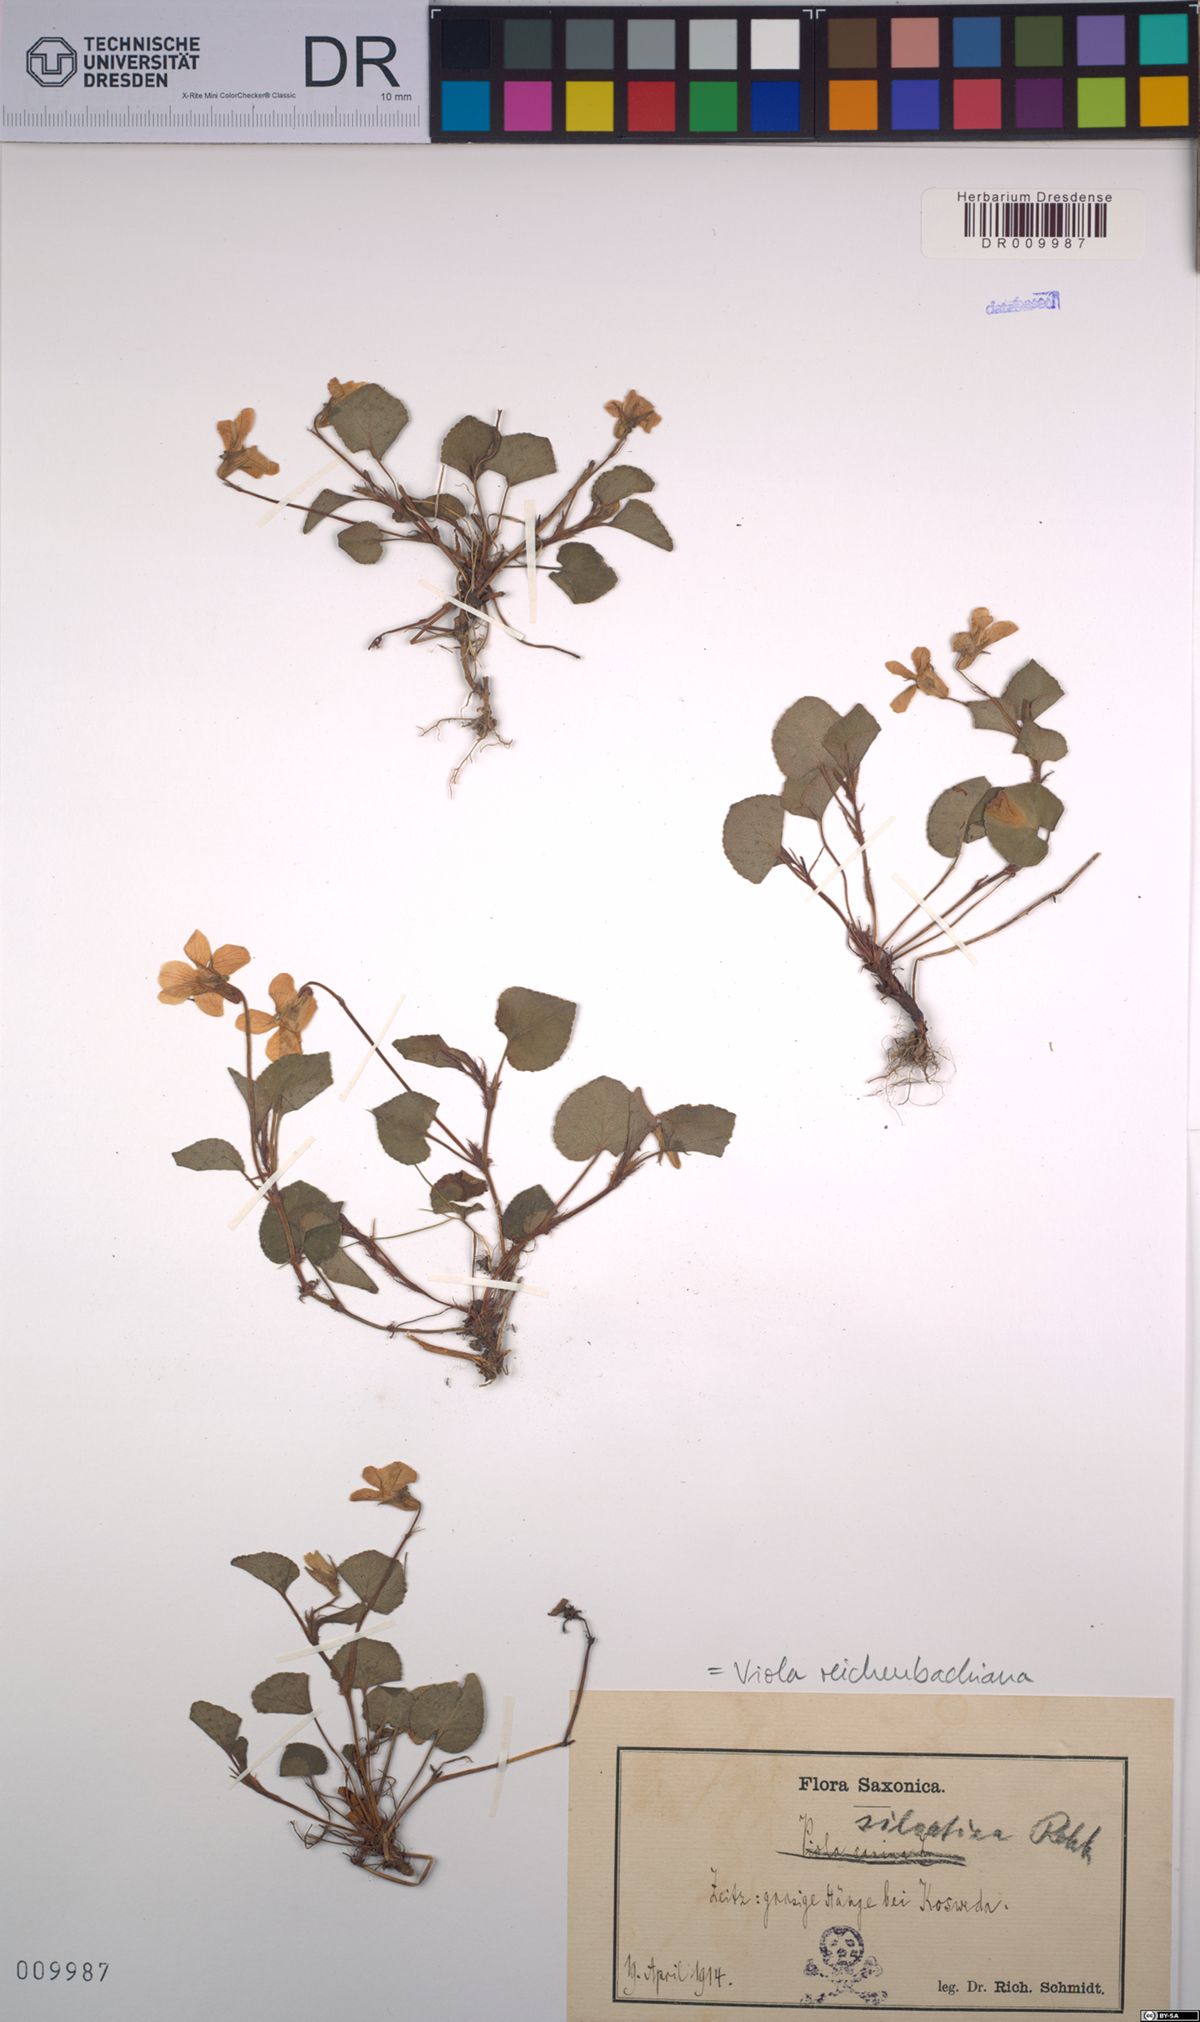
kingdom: Plantae
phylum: Tracheophyta
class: Magnoliopsida
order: Malpighiales
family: Violaceae
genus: Viola
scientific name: Viola reichenbachiana
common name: Early dog-violet
